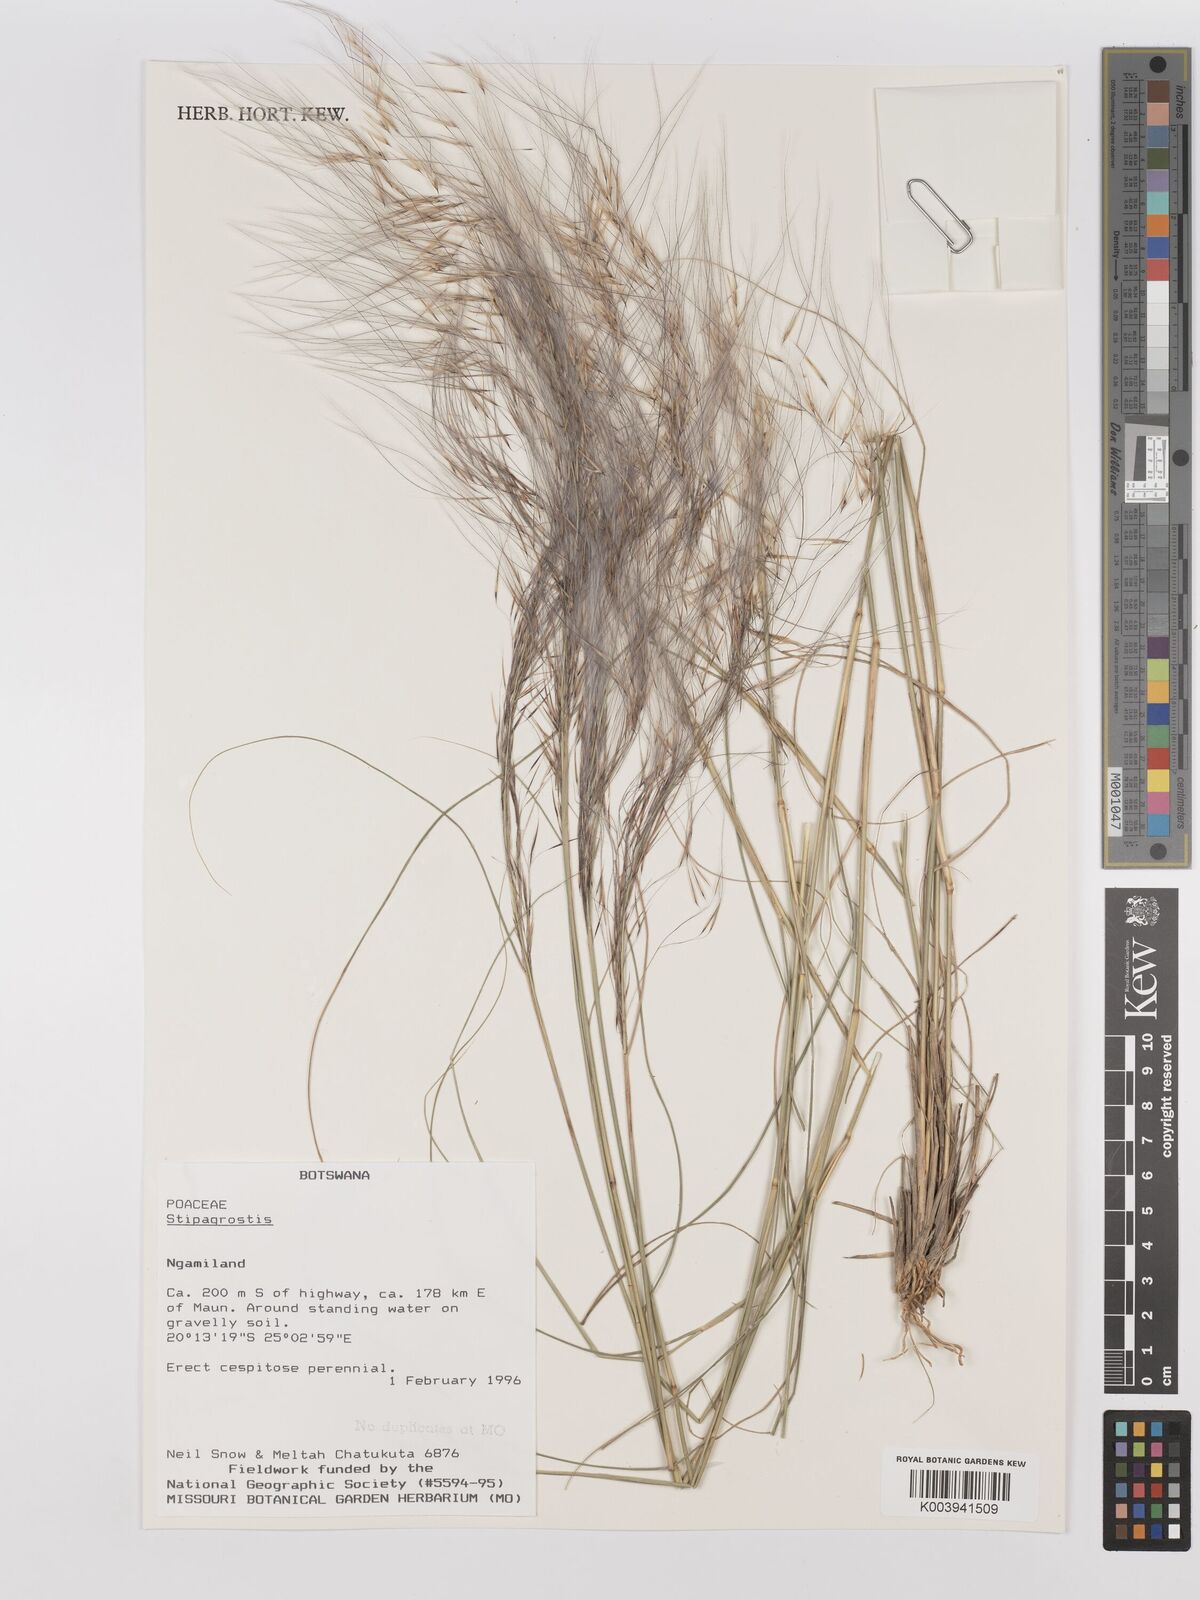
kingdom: Plantae
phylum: Tracheophyta
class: Liliopsida
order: Poales
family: Poaceae
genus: Stipagrostis
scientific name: Stipagrostis
